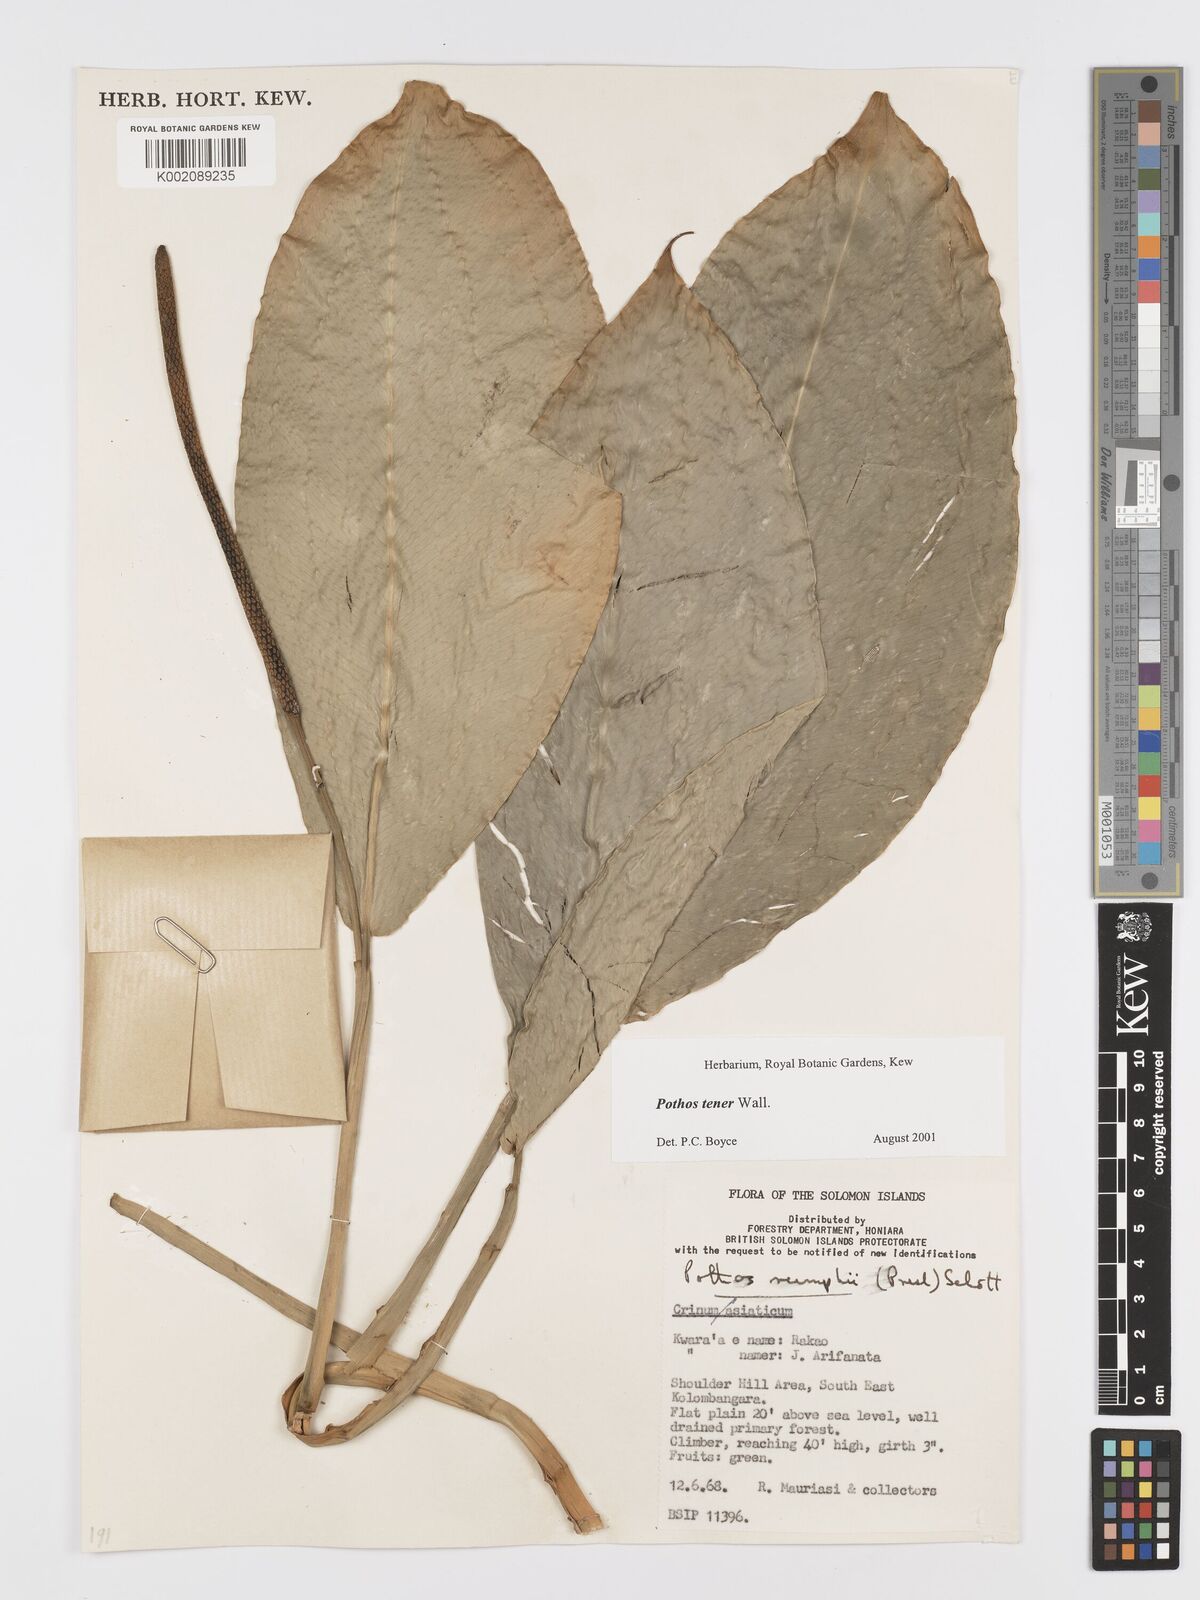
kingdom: Plantae
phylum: Tracheophyta
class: Liliopsida
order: Alismatales
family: Araceae
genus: Pothos
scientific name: Pothos tener
